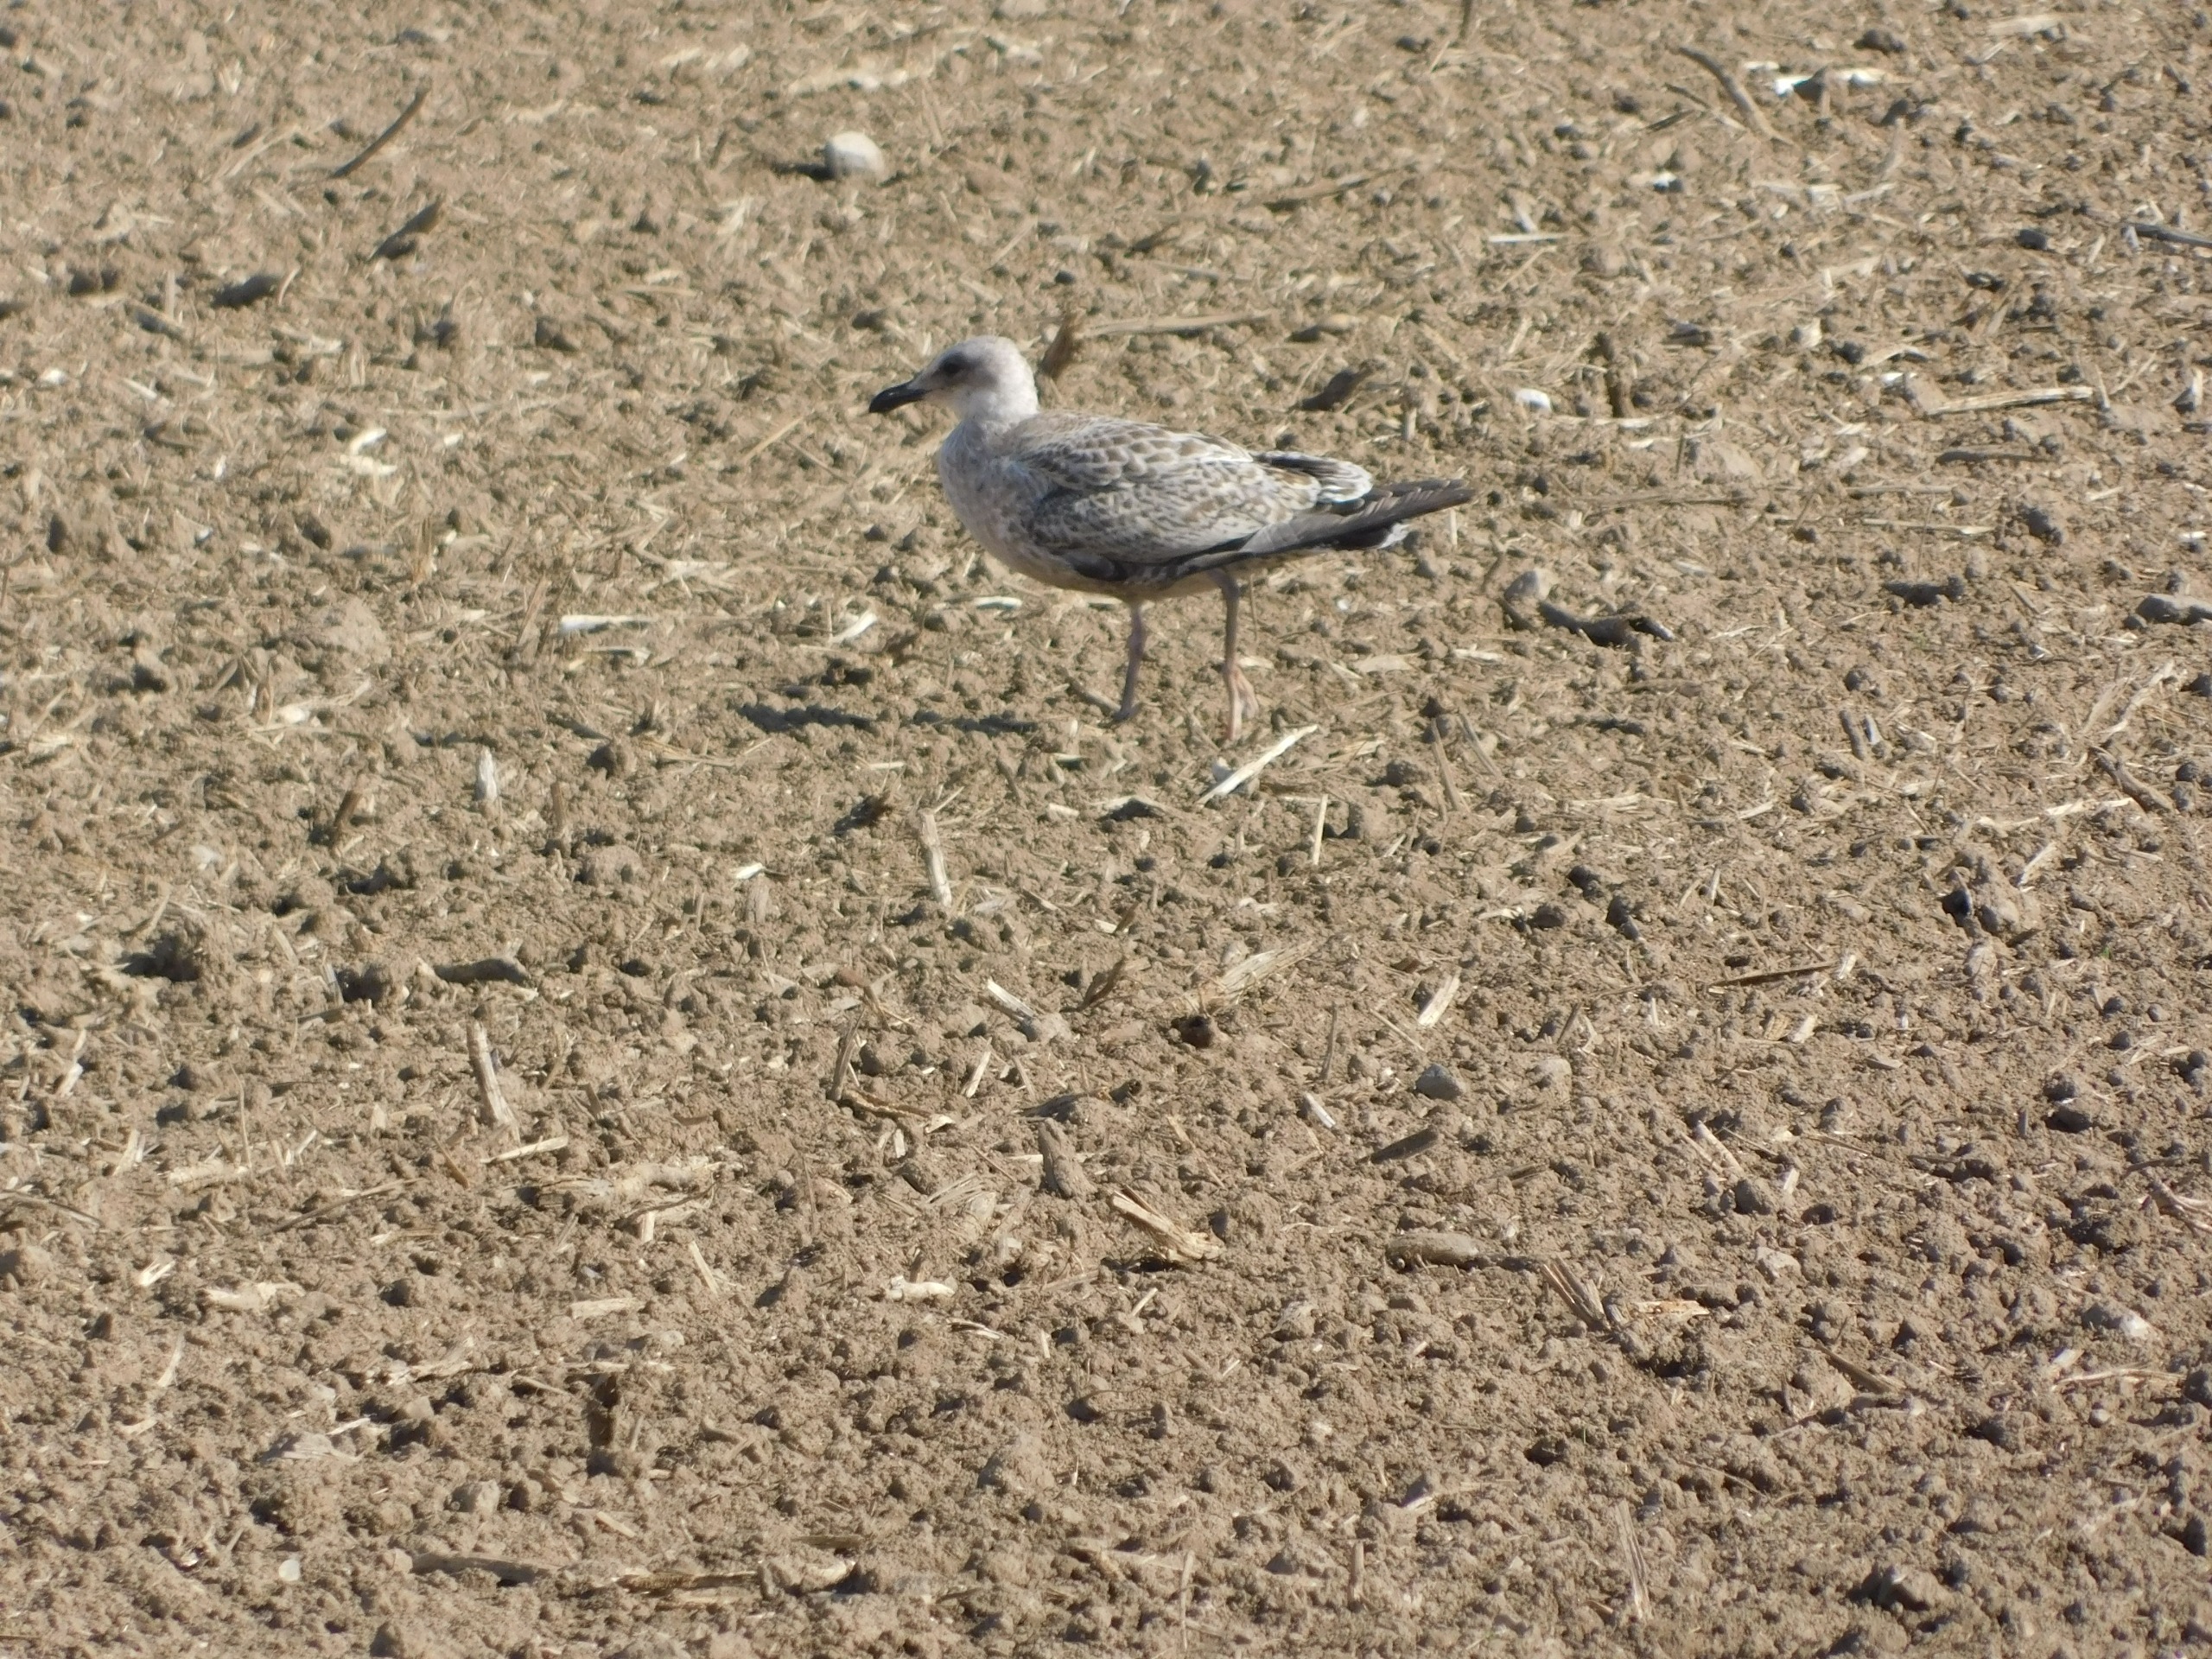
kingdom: Animalia
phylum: Chordata
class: Aves
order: Charadriiformes
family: Laridae
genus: Larus
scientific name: Larus argentatus
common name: Sølvmåge
